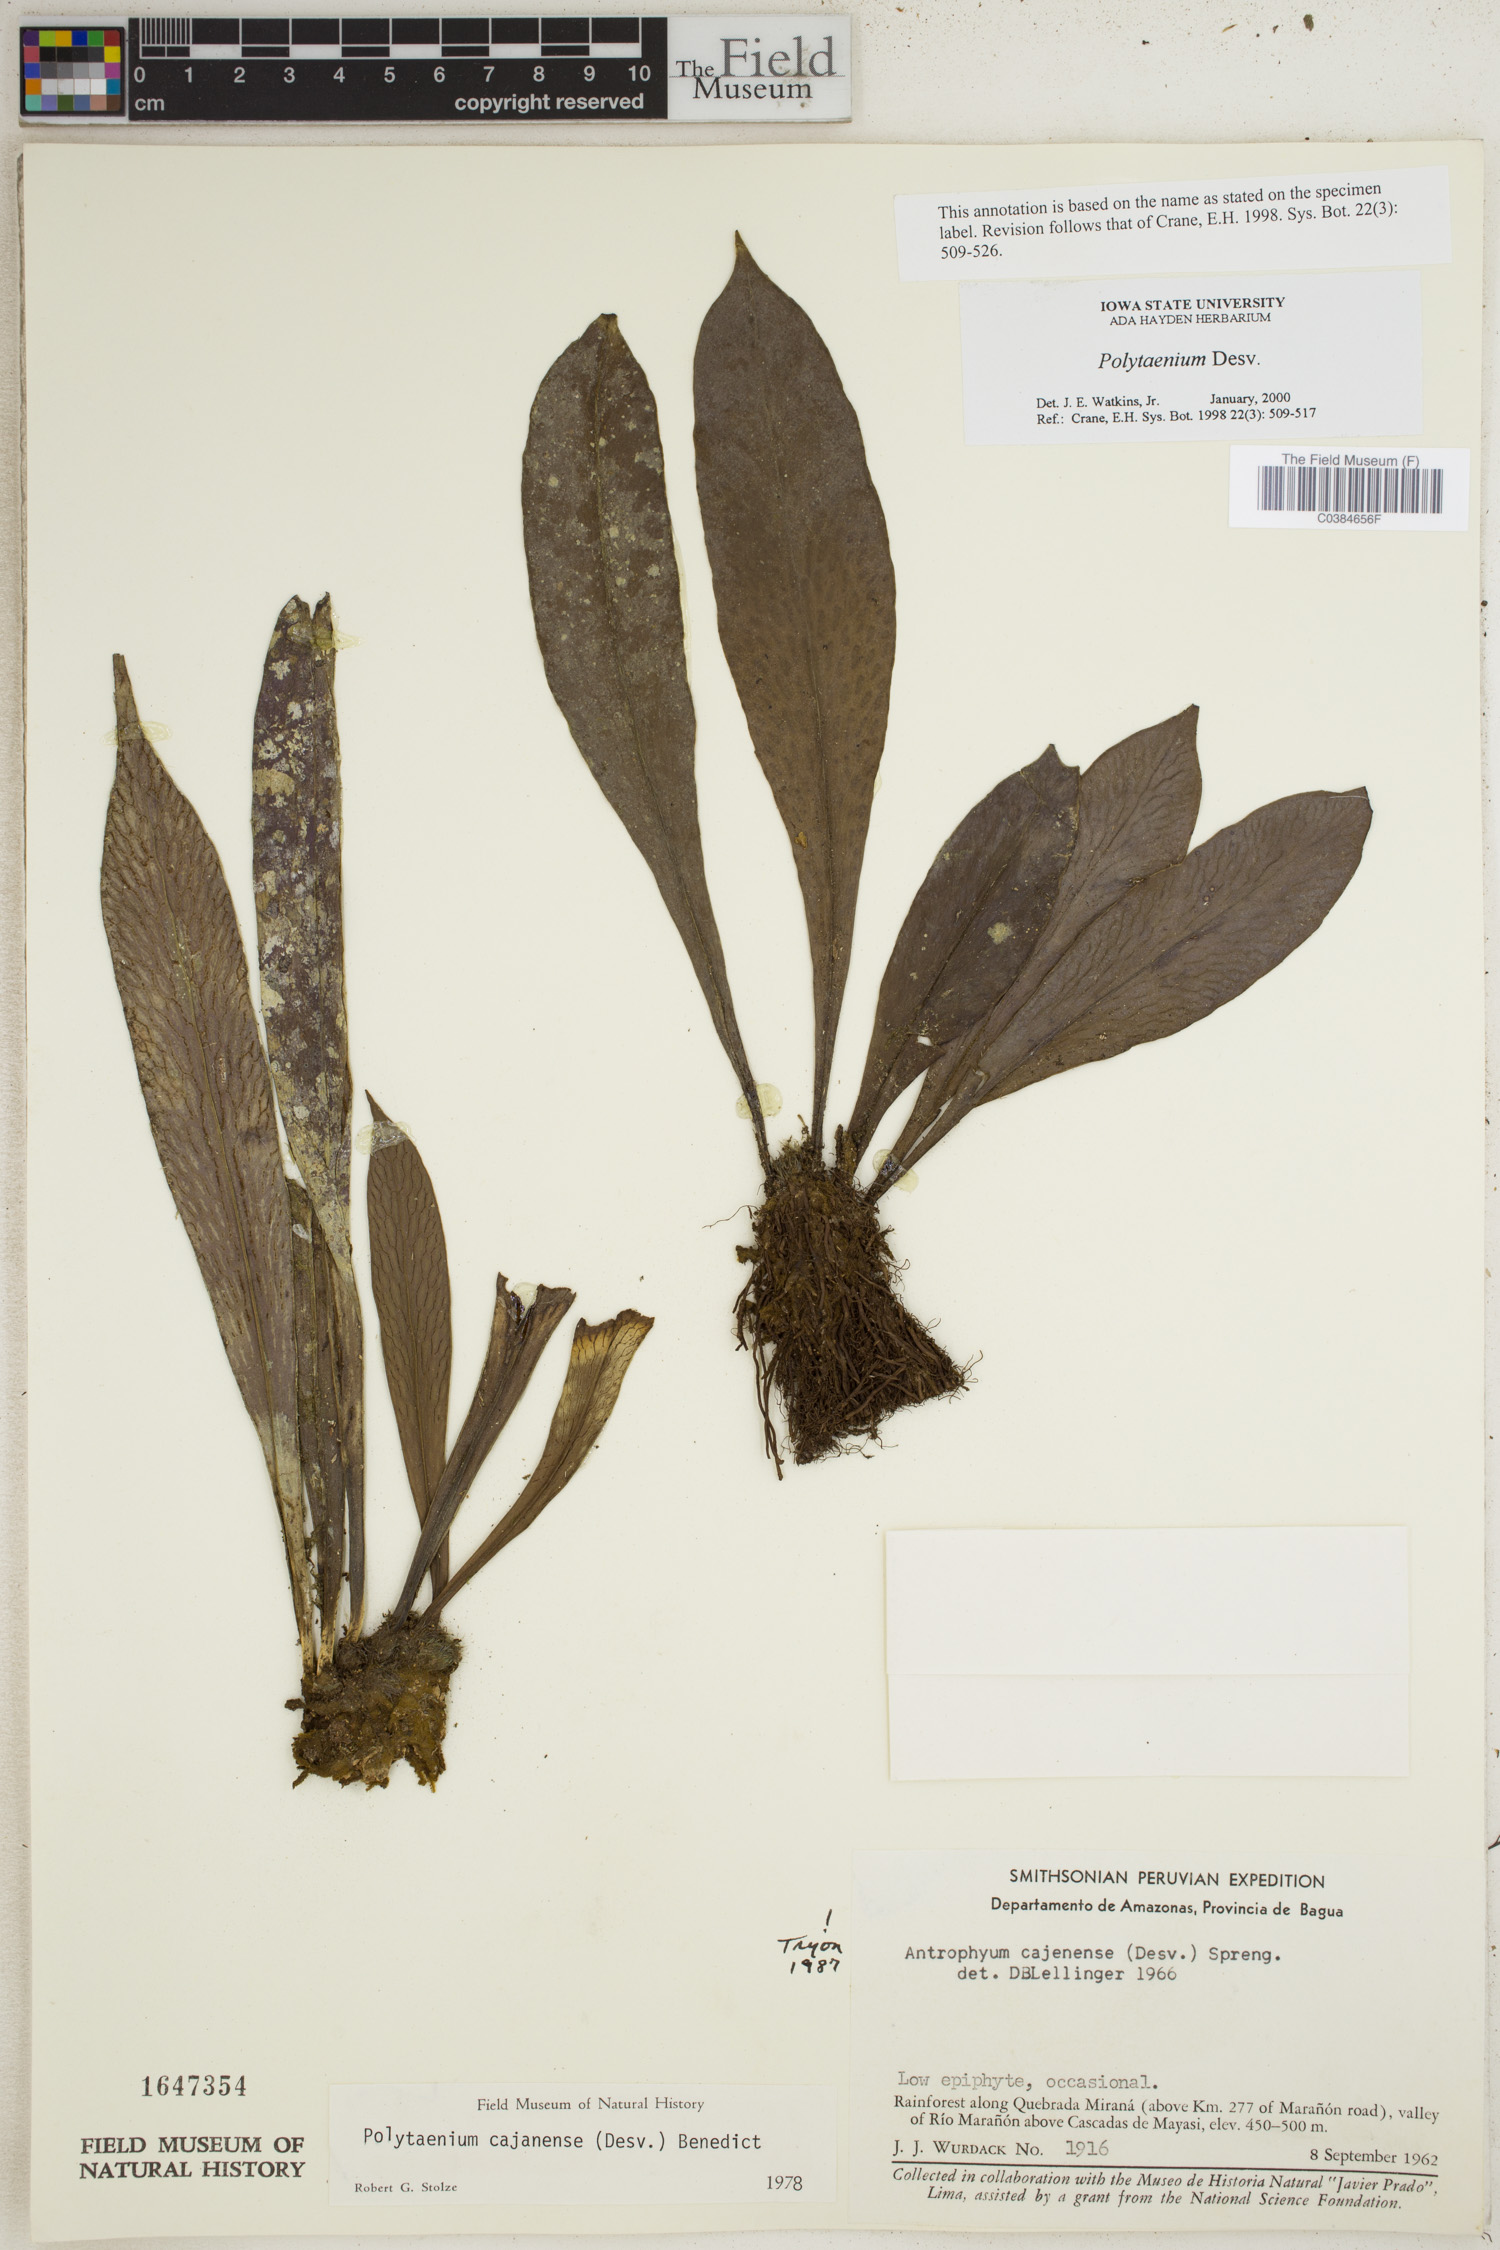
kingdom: Plantae
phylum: Tracheophyta
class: Polypodiopsida
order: Polypodiales
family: Pteridaceae
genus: Polytaenium
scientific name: Polytaenium
